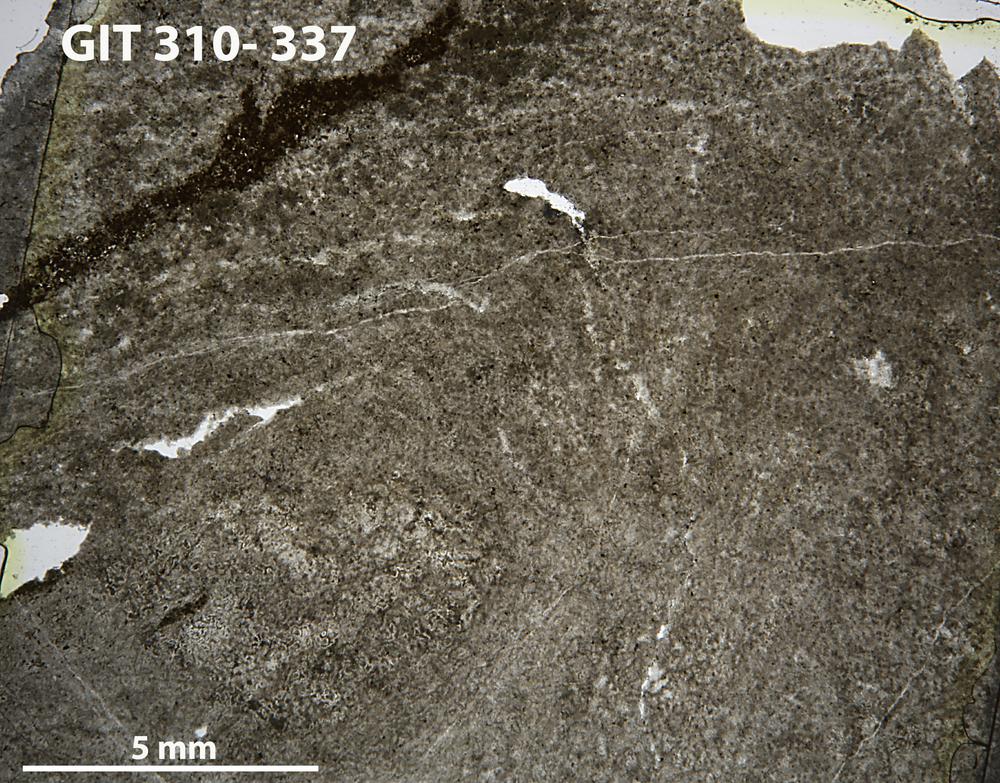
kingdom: Animalia
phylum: Porifera
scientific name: Porifera
